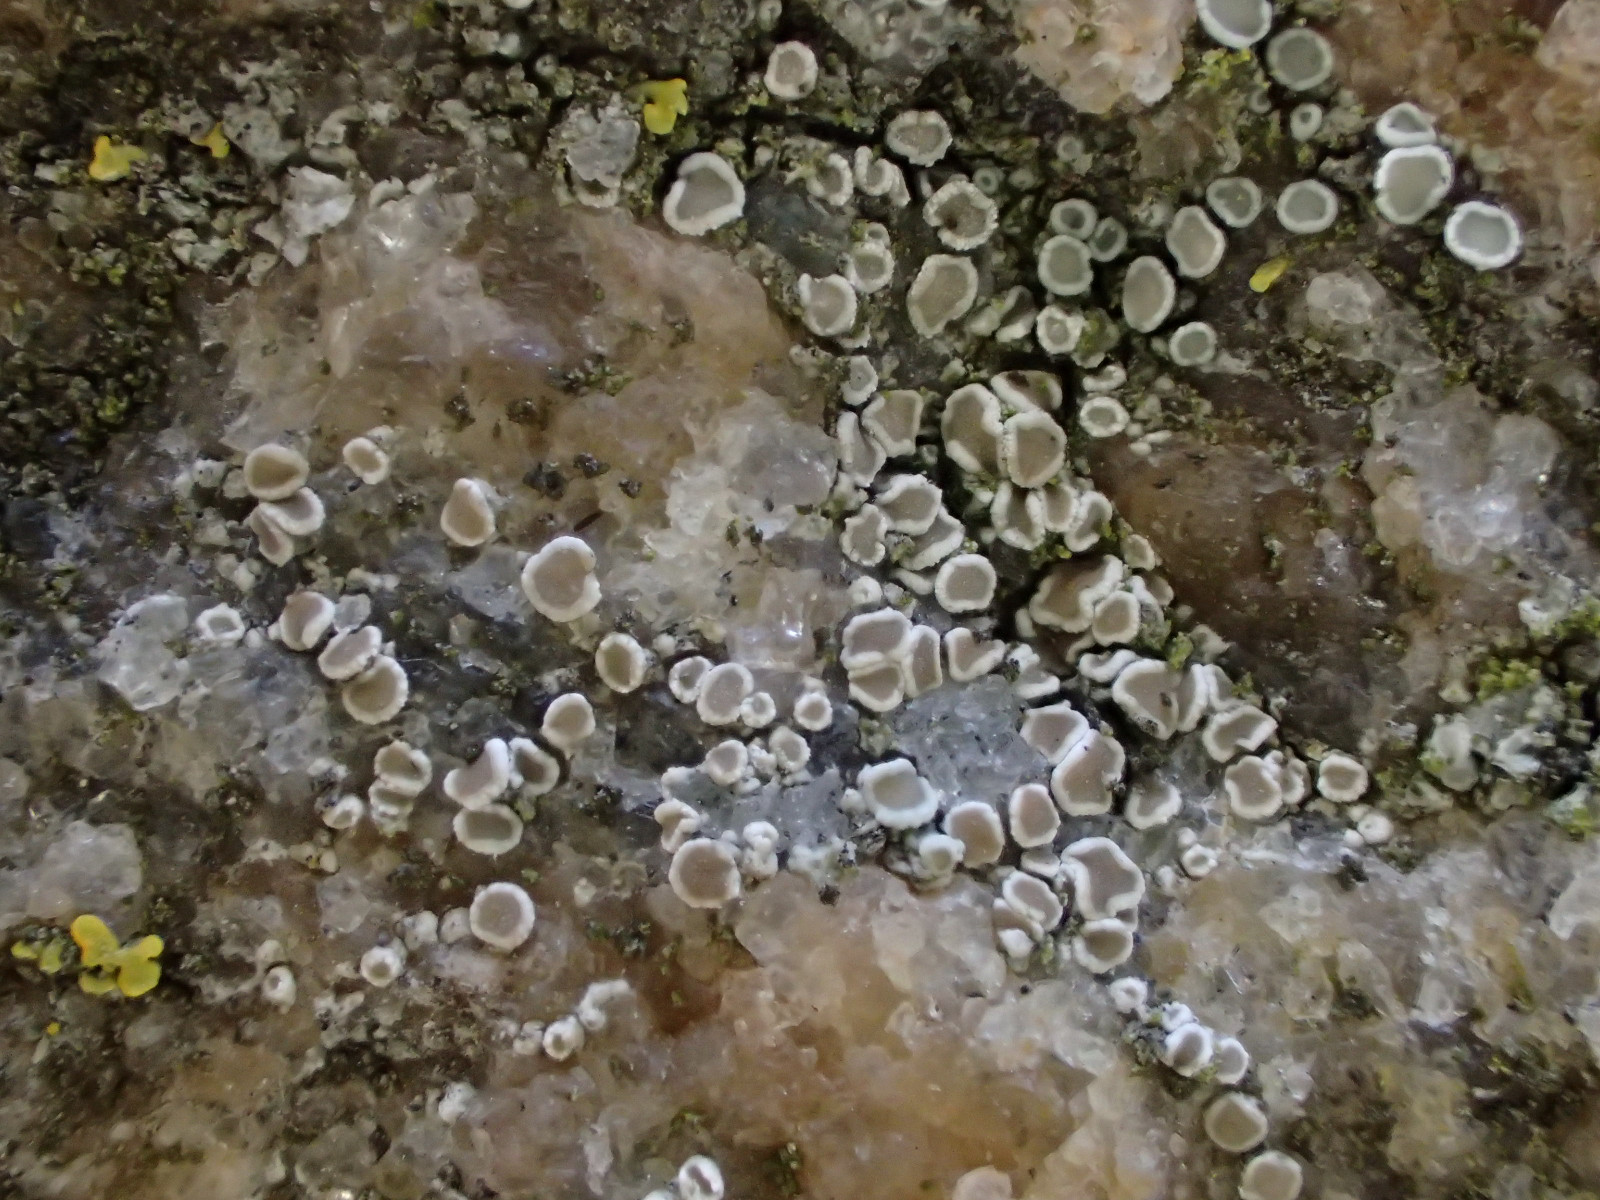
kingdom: Fungi
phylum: Ascomycota
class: Lecanoromycetes
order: Lecanorales
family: Lecanoraceae
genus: Polyozosia
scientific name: Polyozosia dispersa
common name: spredt kantskivelav
